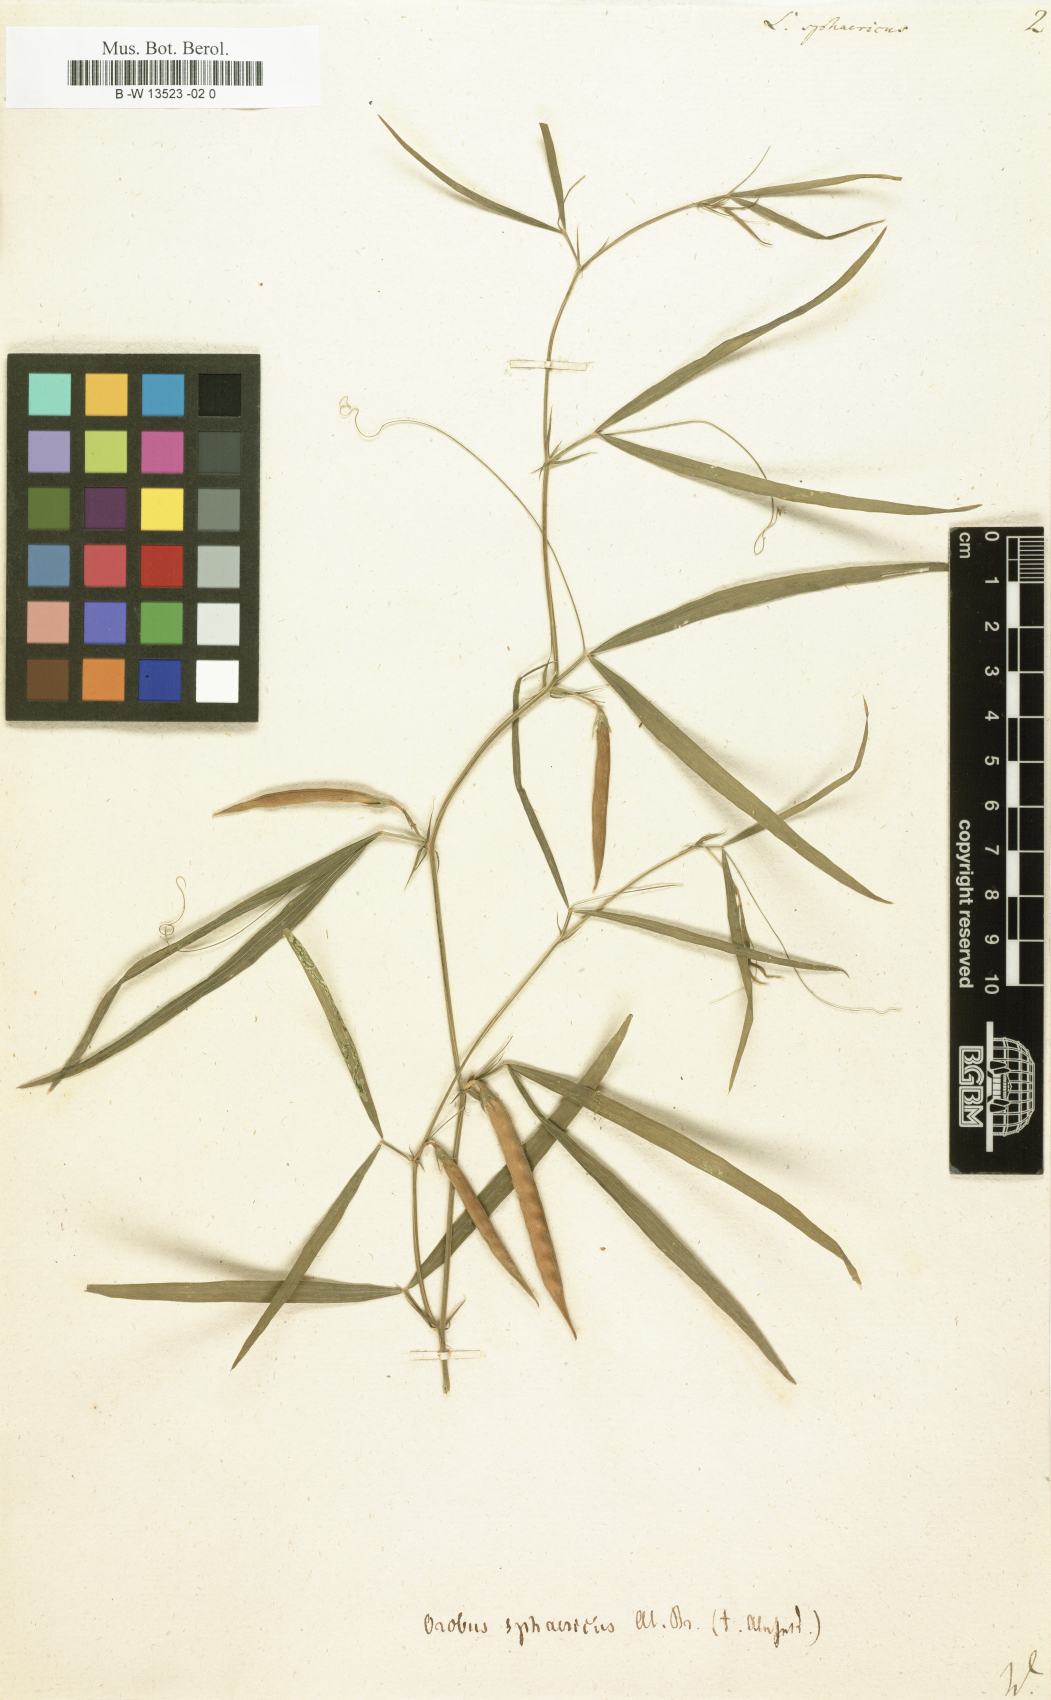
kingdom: Plantae
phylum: Tracheophyta
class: Magnoliopsida
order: Fabales
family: Fabaceae
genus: Lathyrus
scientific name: Lathyrus sphaericus
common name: Grass pea
